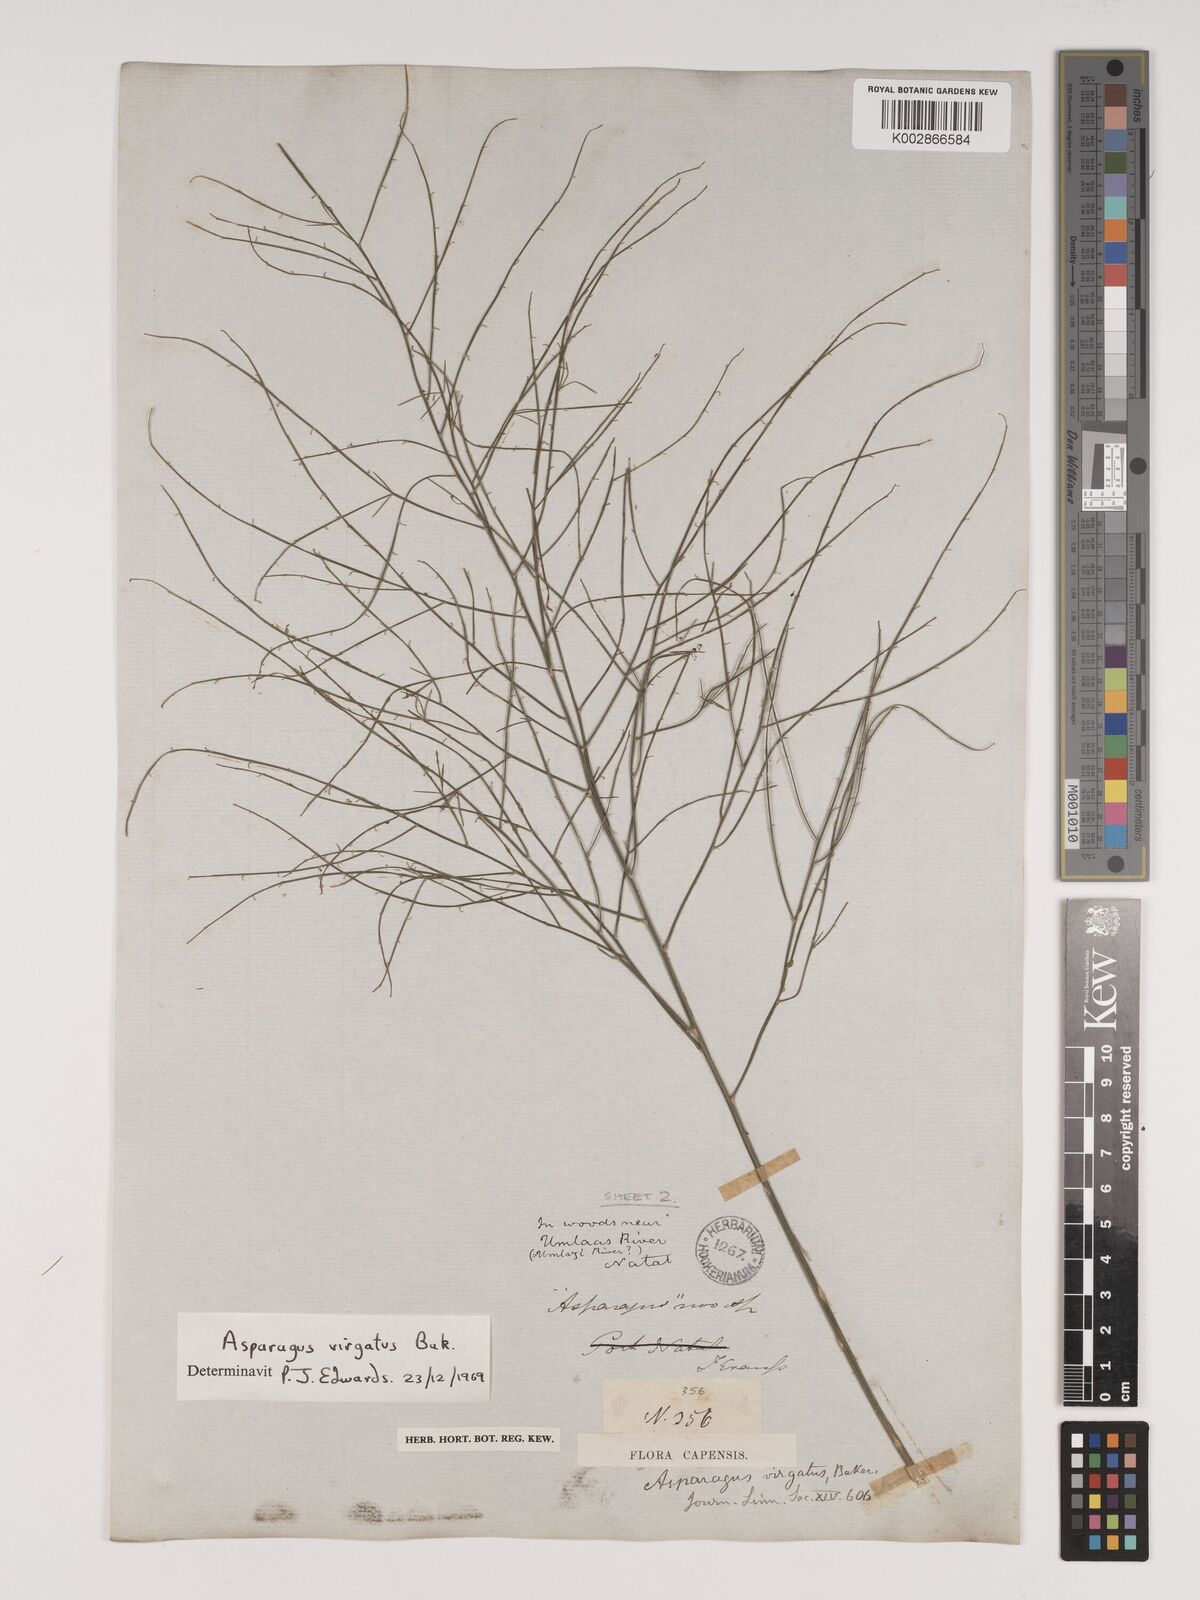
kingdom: Plantae
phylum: Tracheophyta
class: Liliopsida
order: Asparagales
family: Asparagaceae
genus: Asparagus
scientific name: Asparagus virgatus
